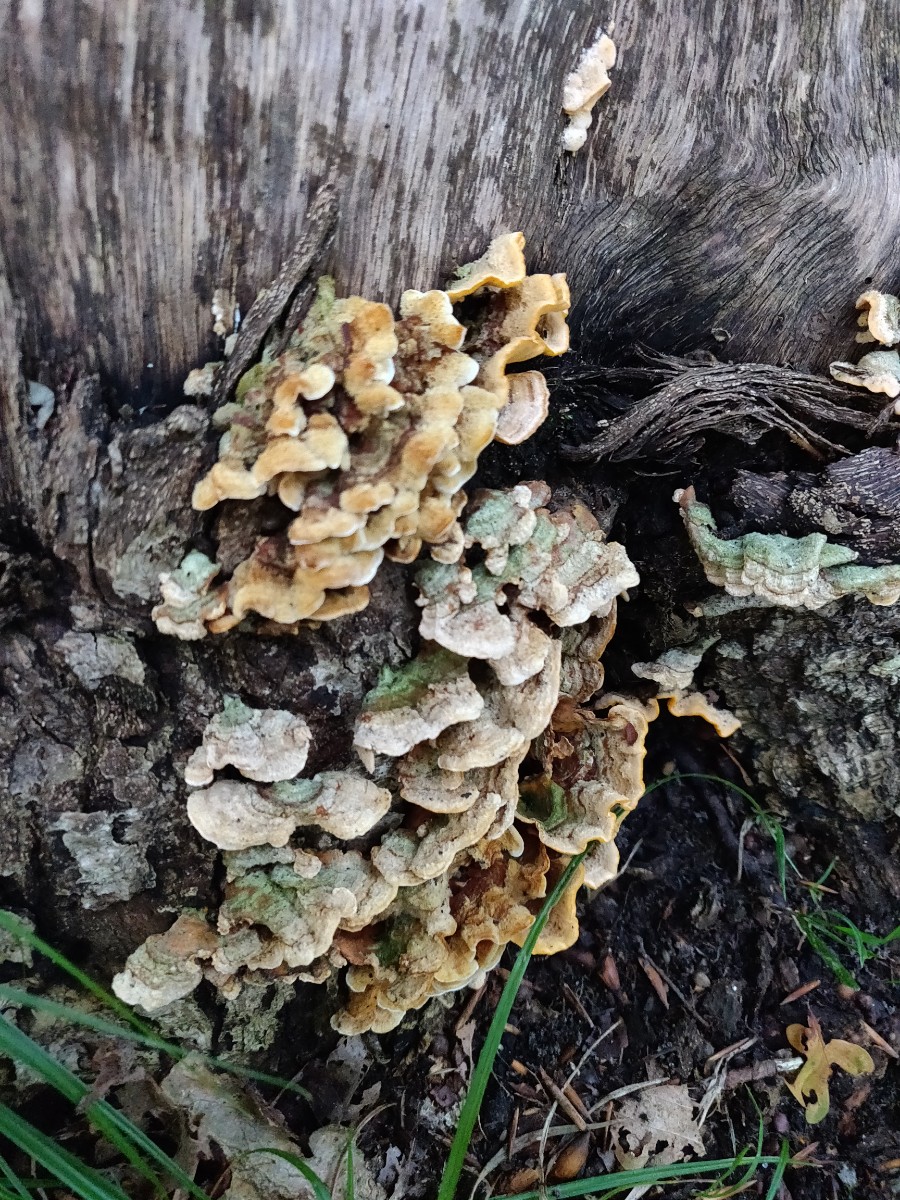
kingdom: Fungi
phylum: Basidiomycota
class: Agaricomycetes
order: Russulales
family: Stereaceae
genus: Stereum
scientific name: Stereum subtomentosum
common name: smuk lædersvamp
